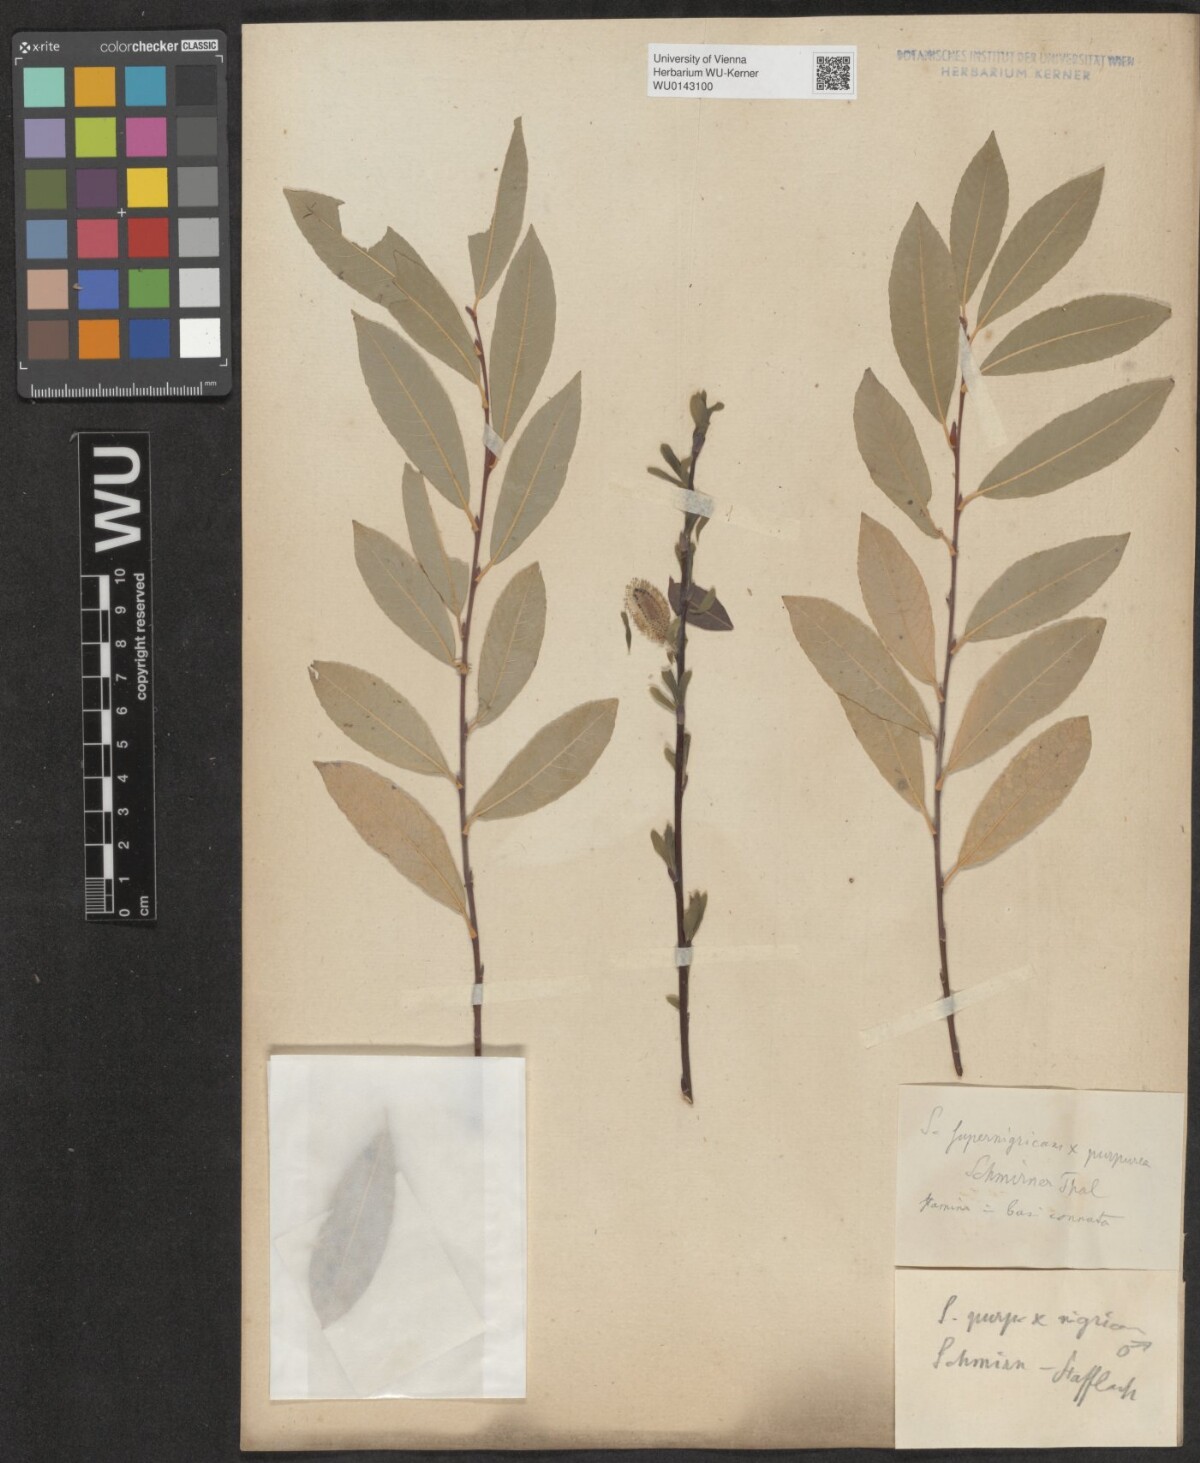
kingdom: Plantae
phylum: Tracheophyta
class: Magnoliopsida
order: Malpighiales
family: Salicaceae
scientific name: Salicaceae
